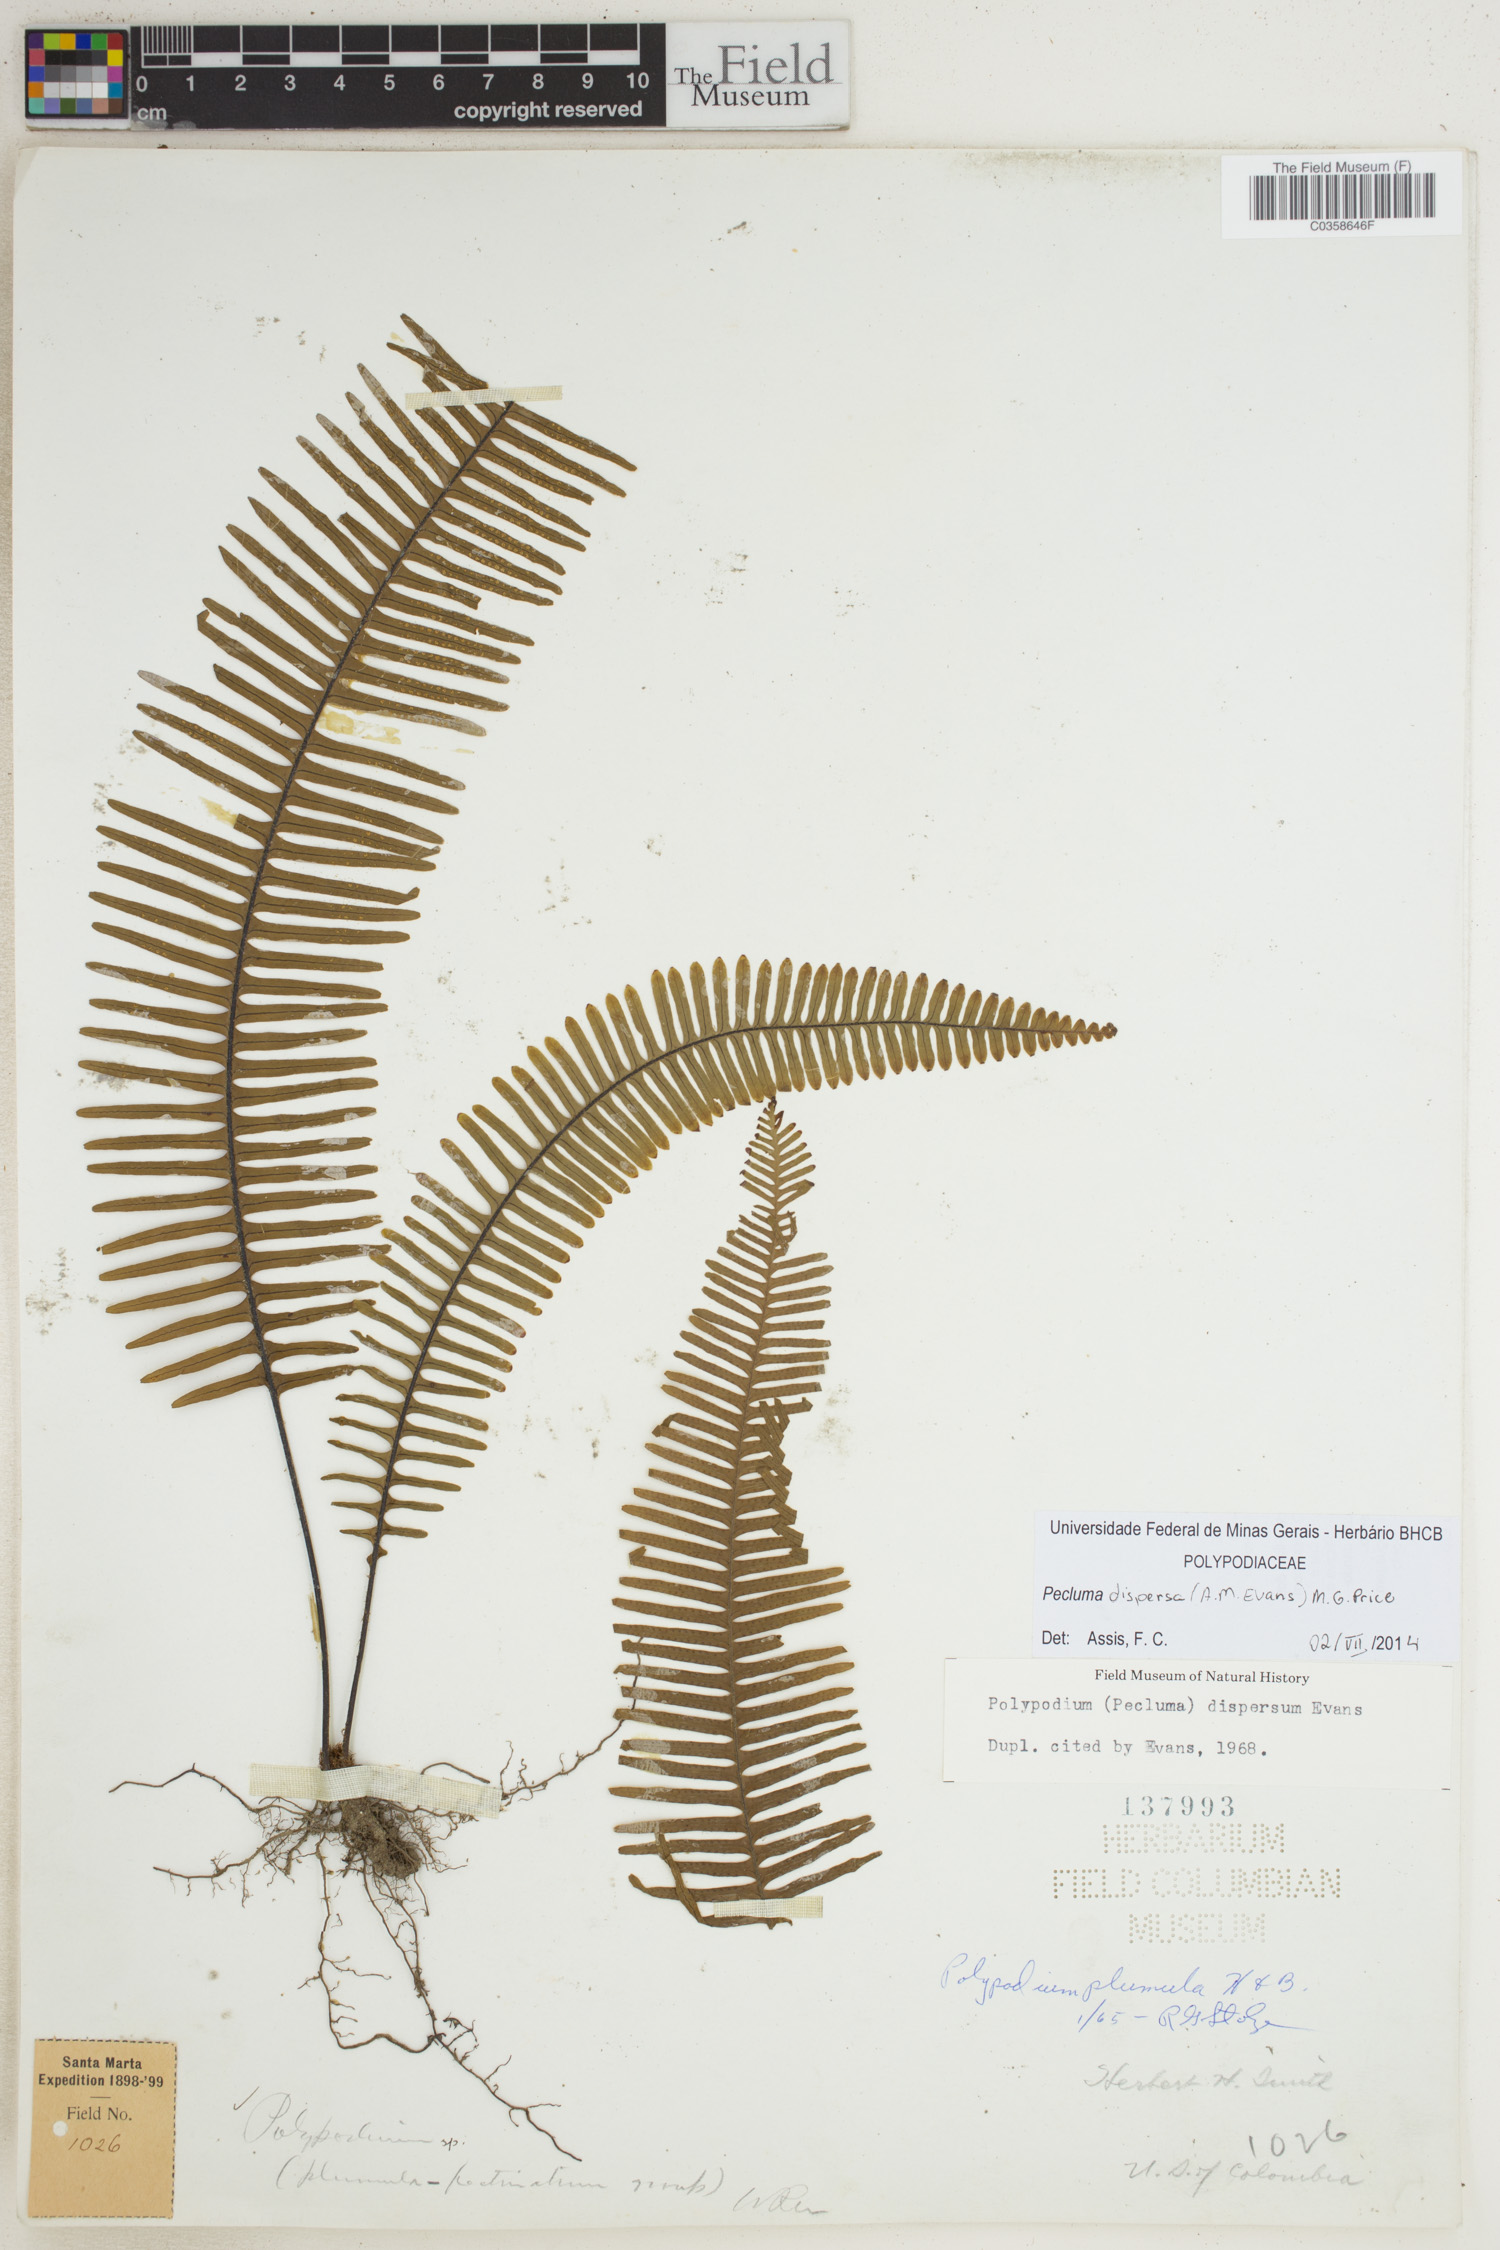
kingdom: Plantae
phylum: Tracheophyta
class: Polypodiopsida
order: Polypodiales
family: Polypodiaceae
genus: Pecluma
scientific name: Pecluma dispersa
